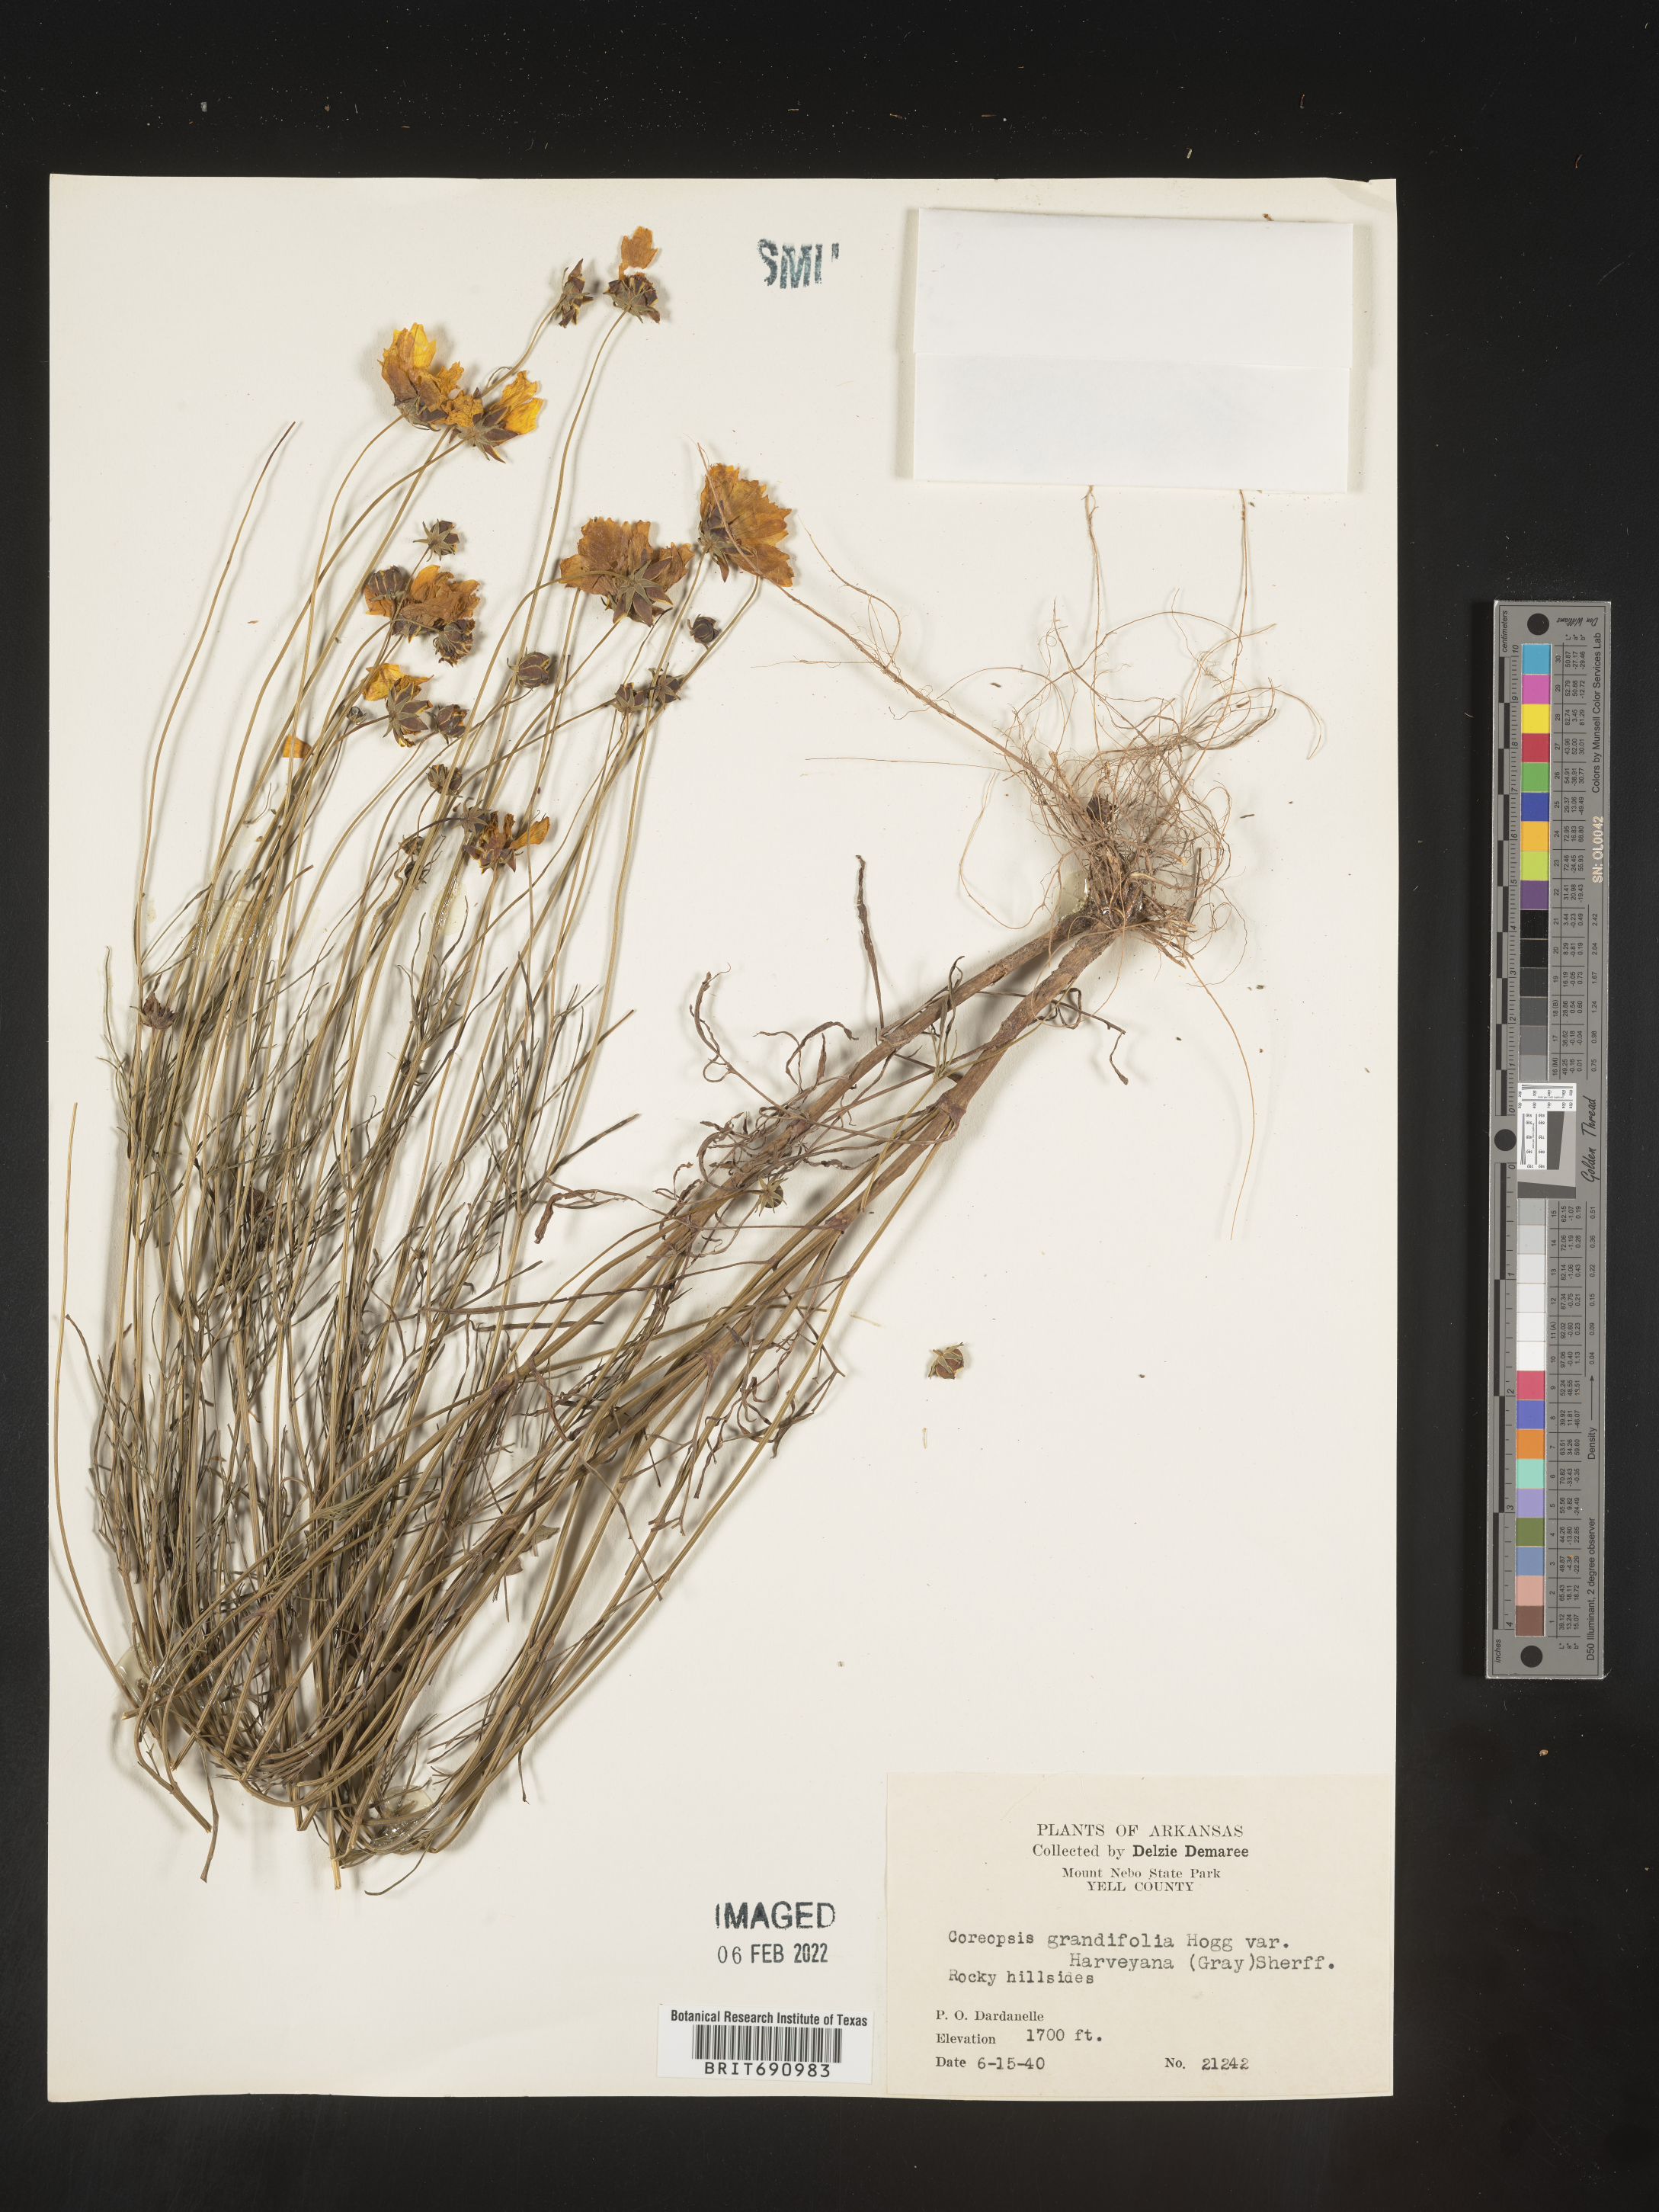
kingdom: Plantae
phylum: Tracheophyta
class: Magnoliopsida
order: Asterales
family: Asteraceae
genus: Coreopsis
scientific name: Coreopsis grandiflora
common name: Large-flowered tickseed
